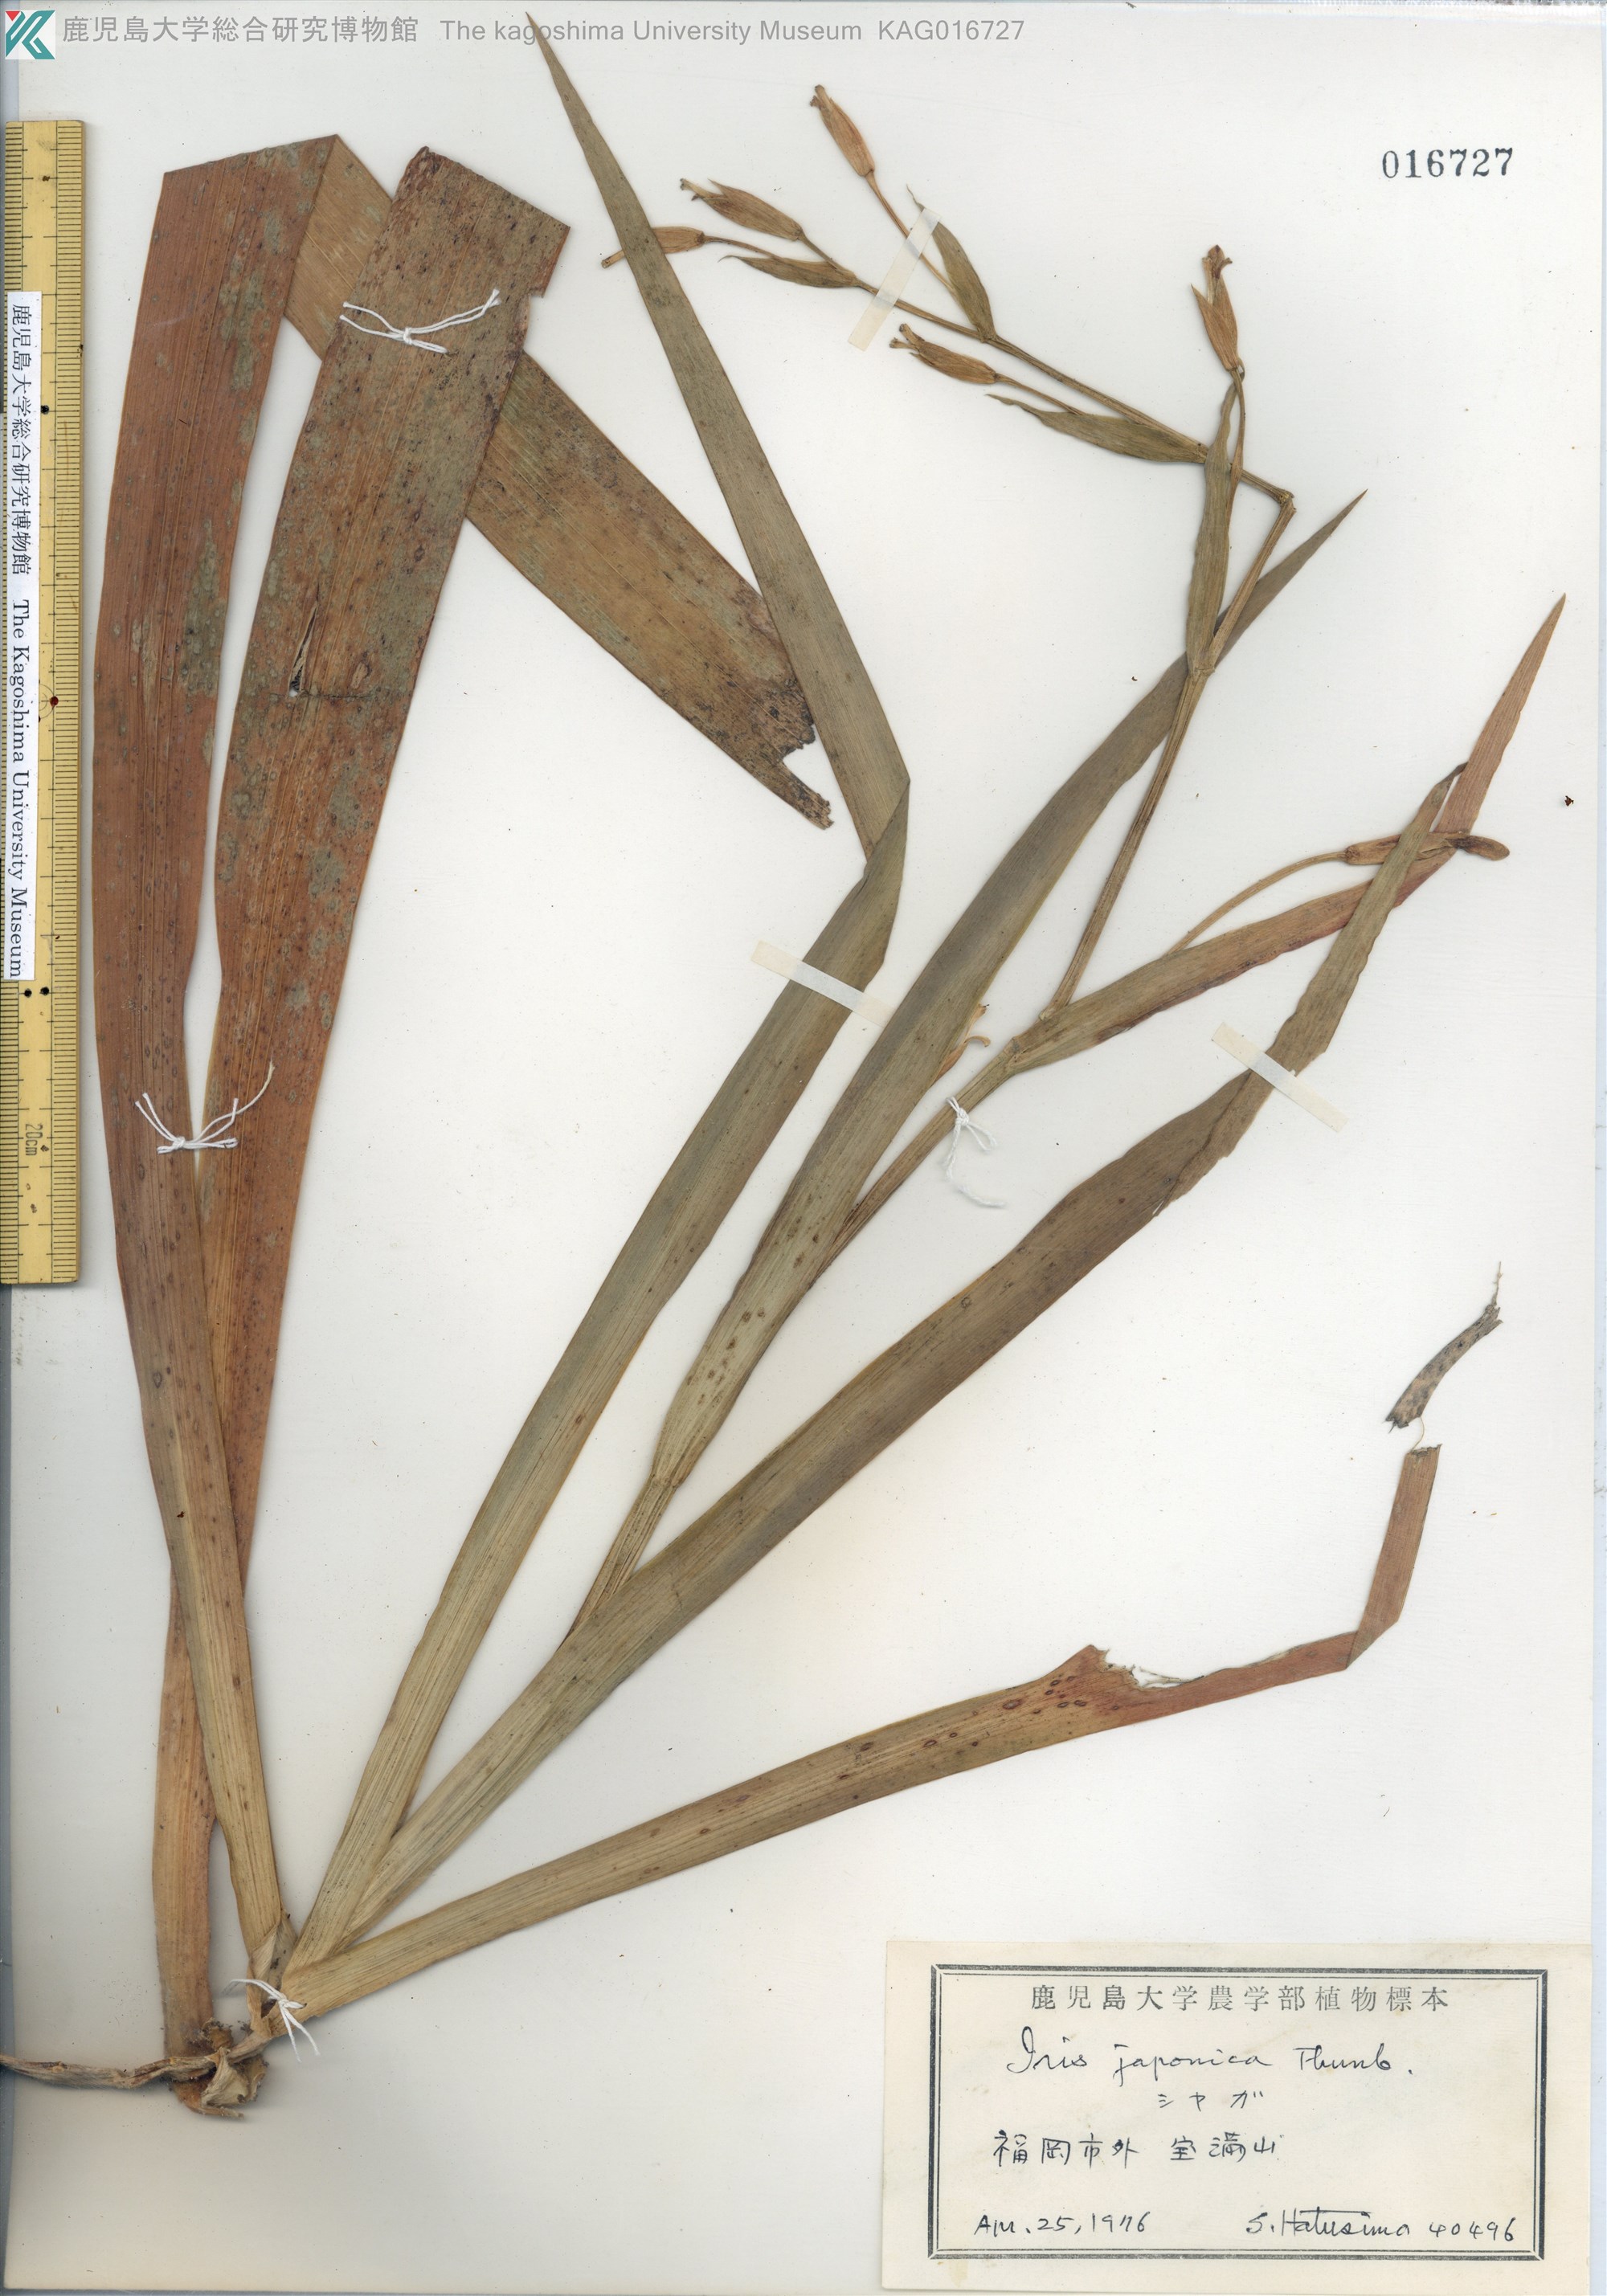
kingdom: Plantae
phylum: Tracheophyta
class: Liliopsida
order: Asparagales
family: Iridaceae
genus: Iris
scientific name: Iris japonica
